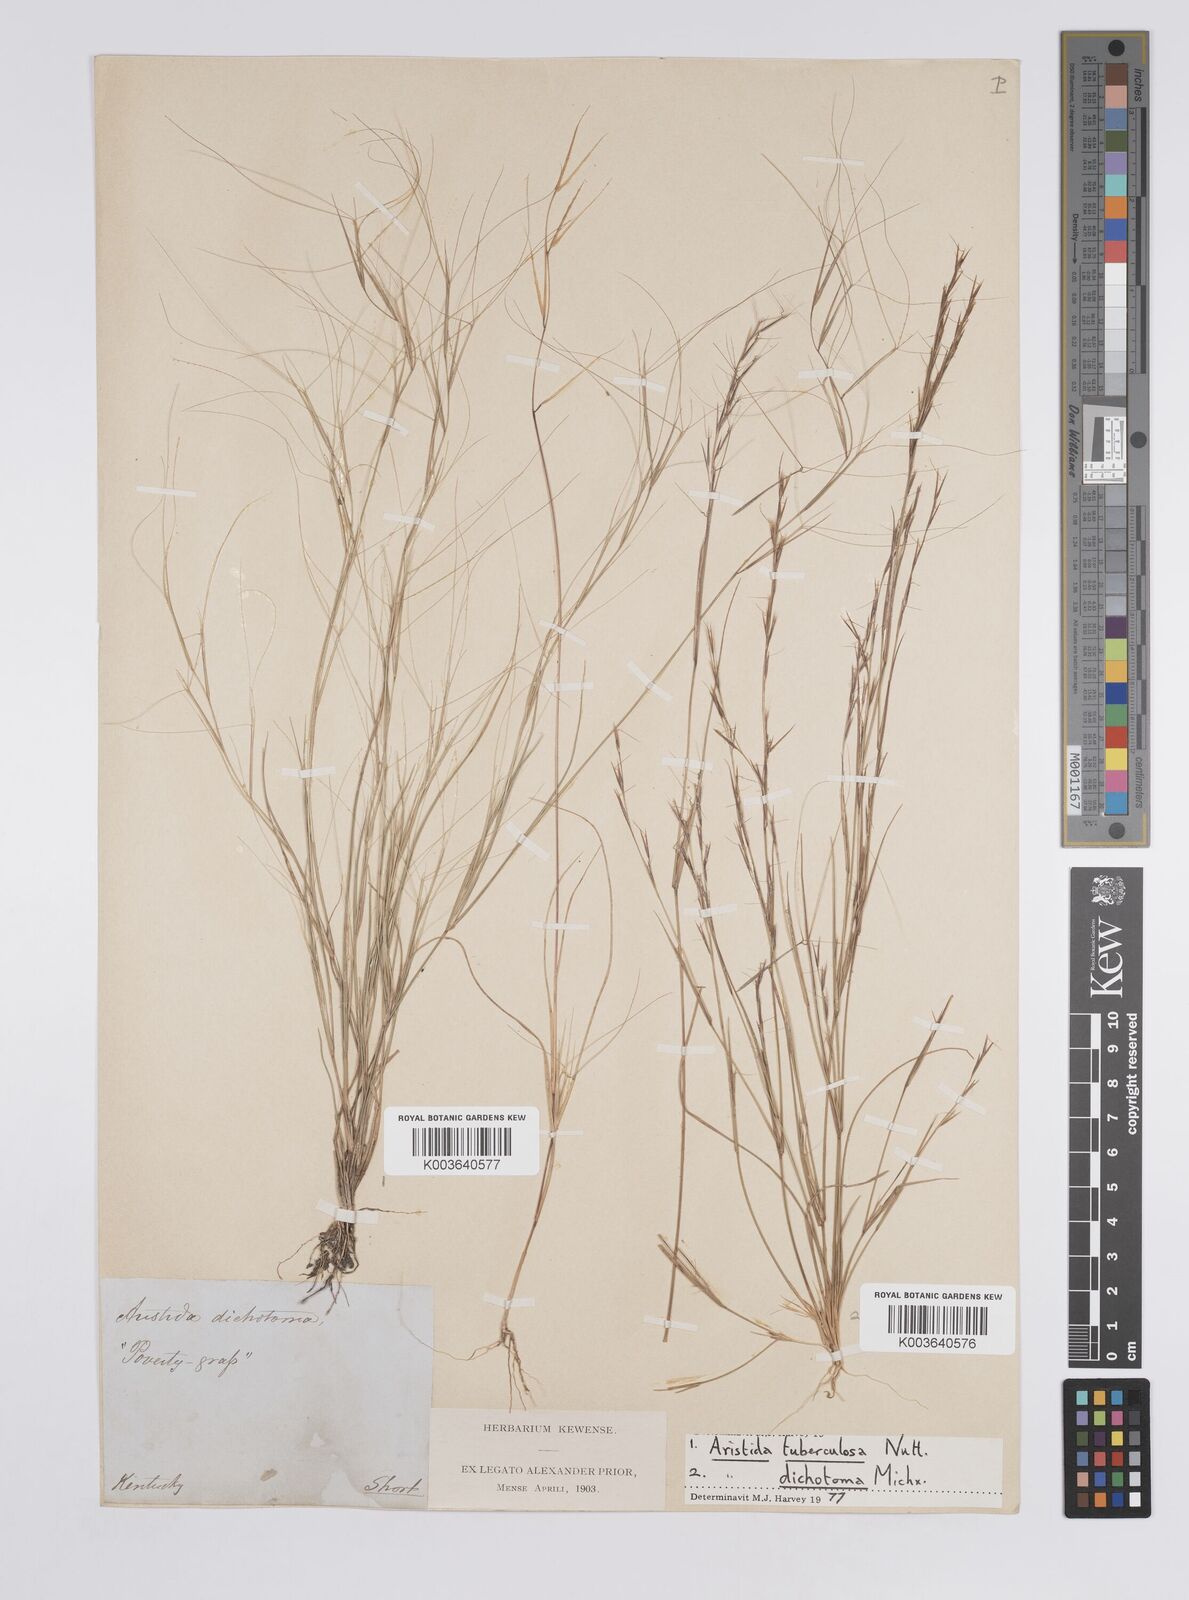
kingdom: Plantae
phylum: Tracheophyta
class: Liliopsida
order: Poales
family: Poaceae
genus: Aristida
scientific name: Aristida dichotoma
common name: Churchmouse three-awn
